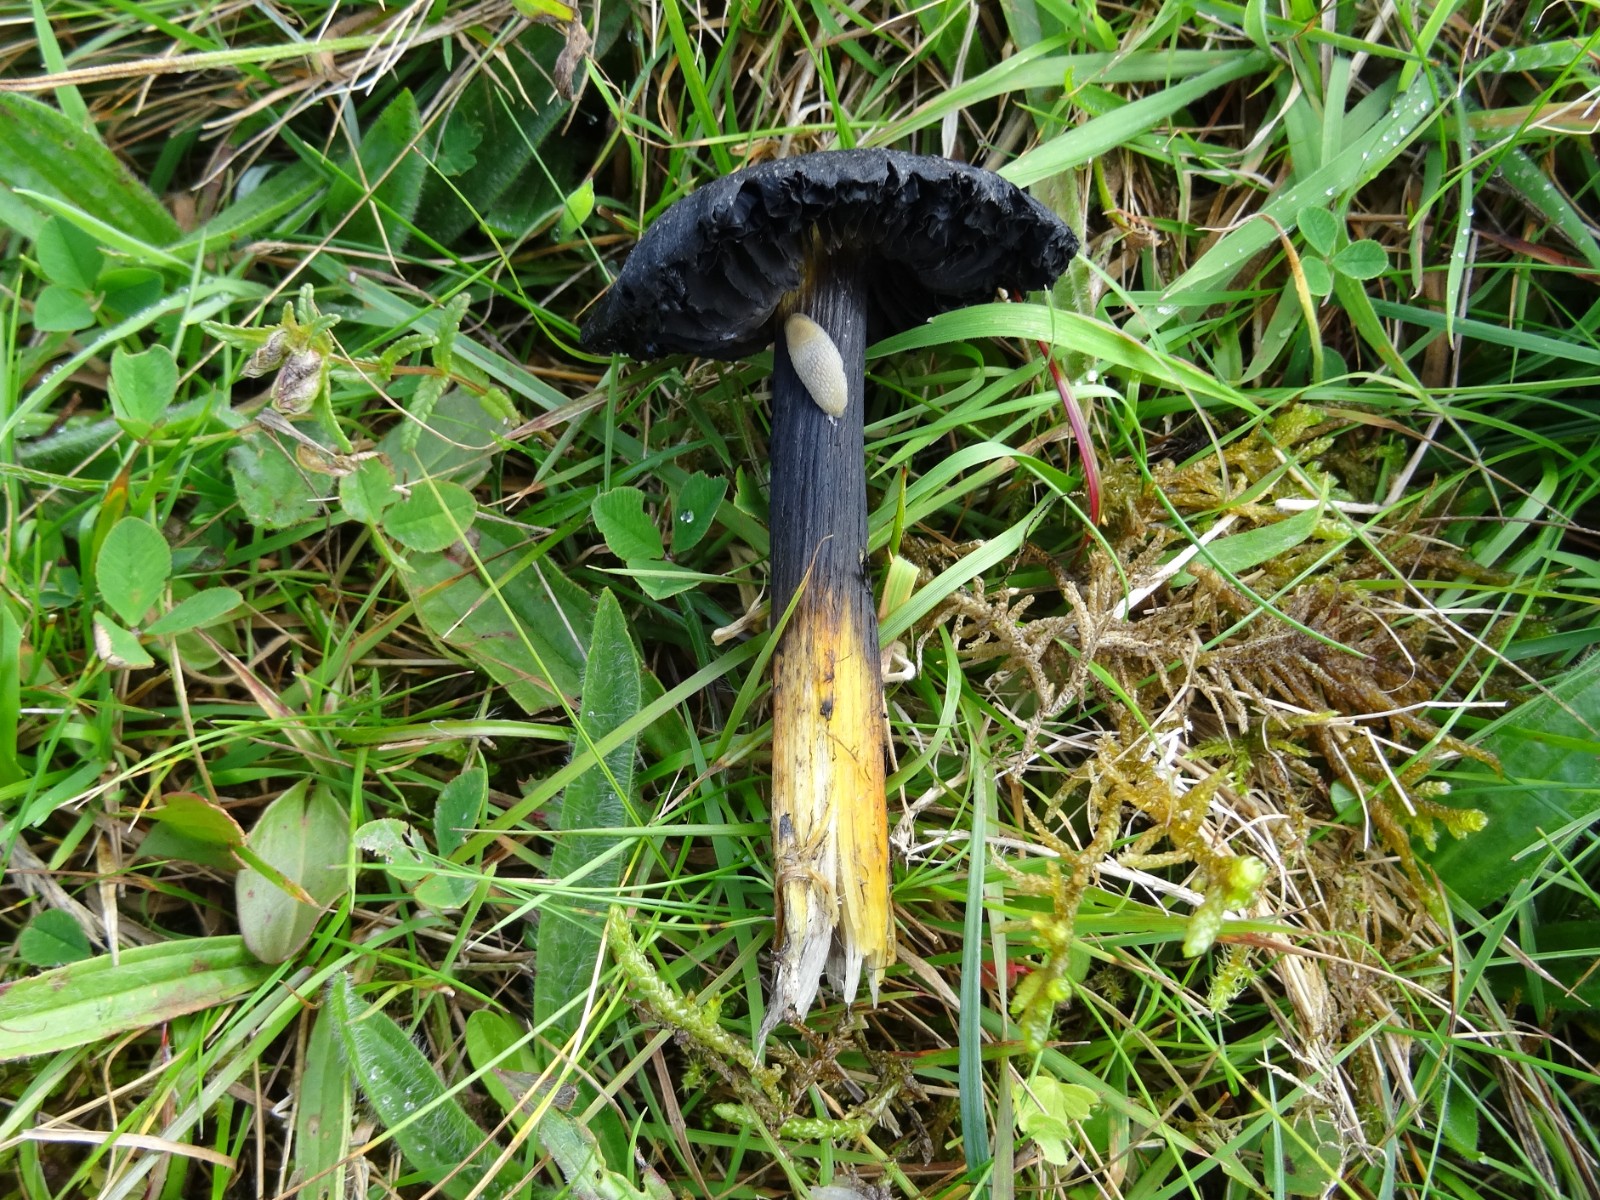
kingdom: Fungi
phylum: Basidiomycota
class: Agaricomycetes
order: Agaricales
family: Hygrophoraceae
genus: Hygrocybe
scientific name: Hygrocybe conica
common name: kegle-vokshat
